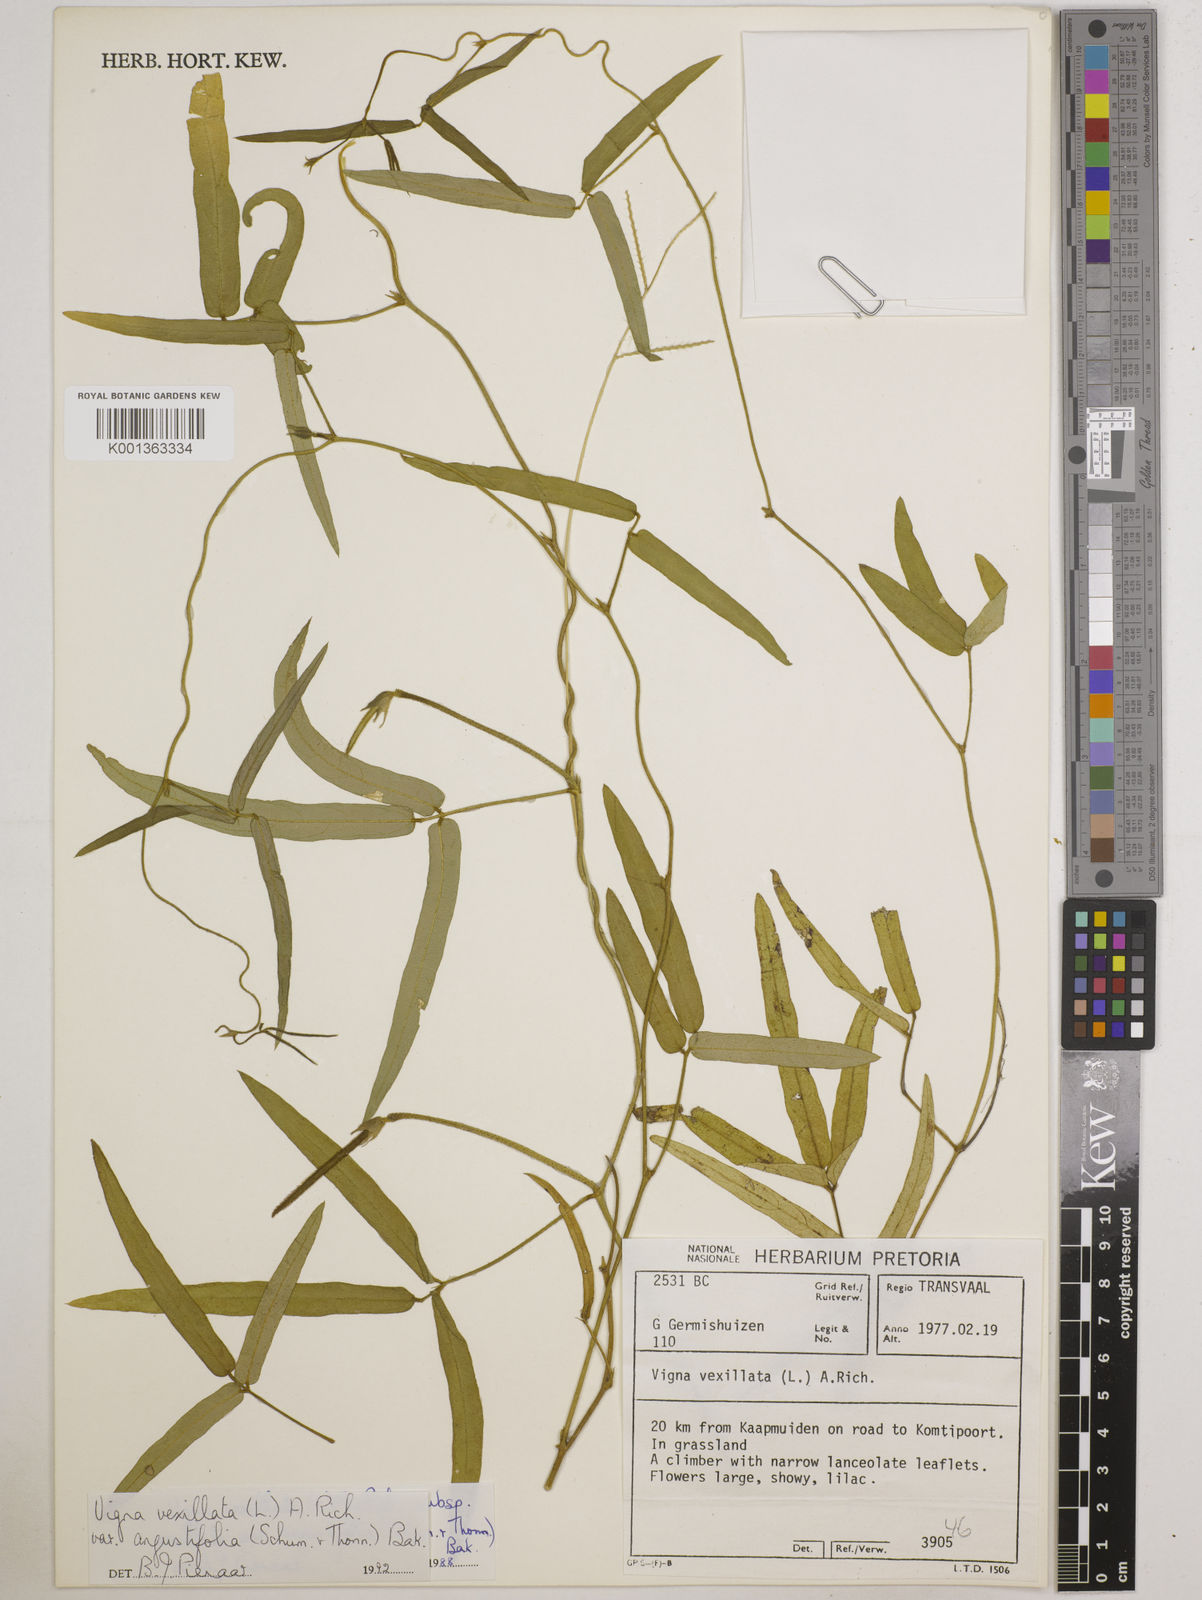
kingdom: Plantae
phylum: Tracheophyta
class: Magnoliopsida
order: Fabales
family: Fabaceae
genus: Vigna
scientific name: Vigna
